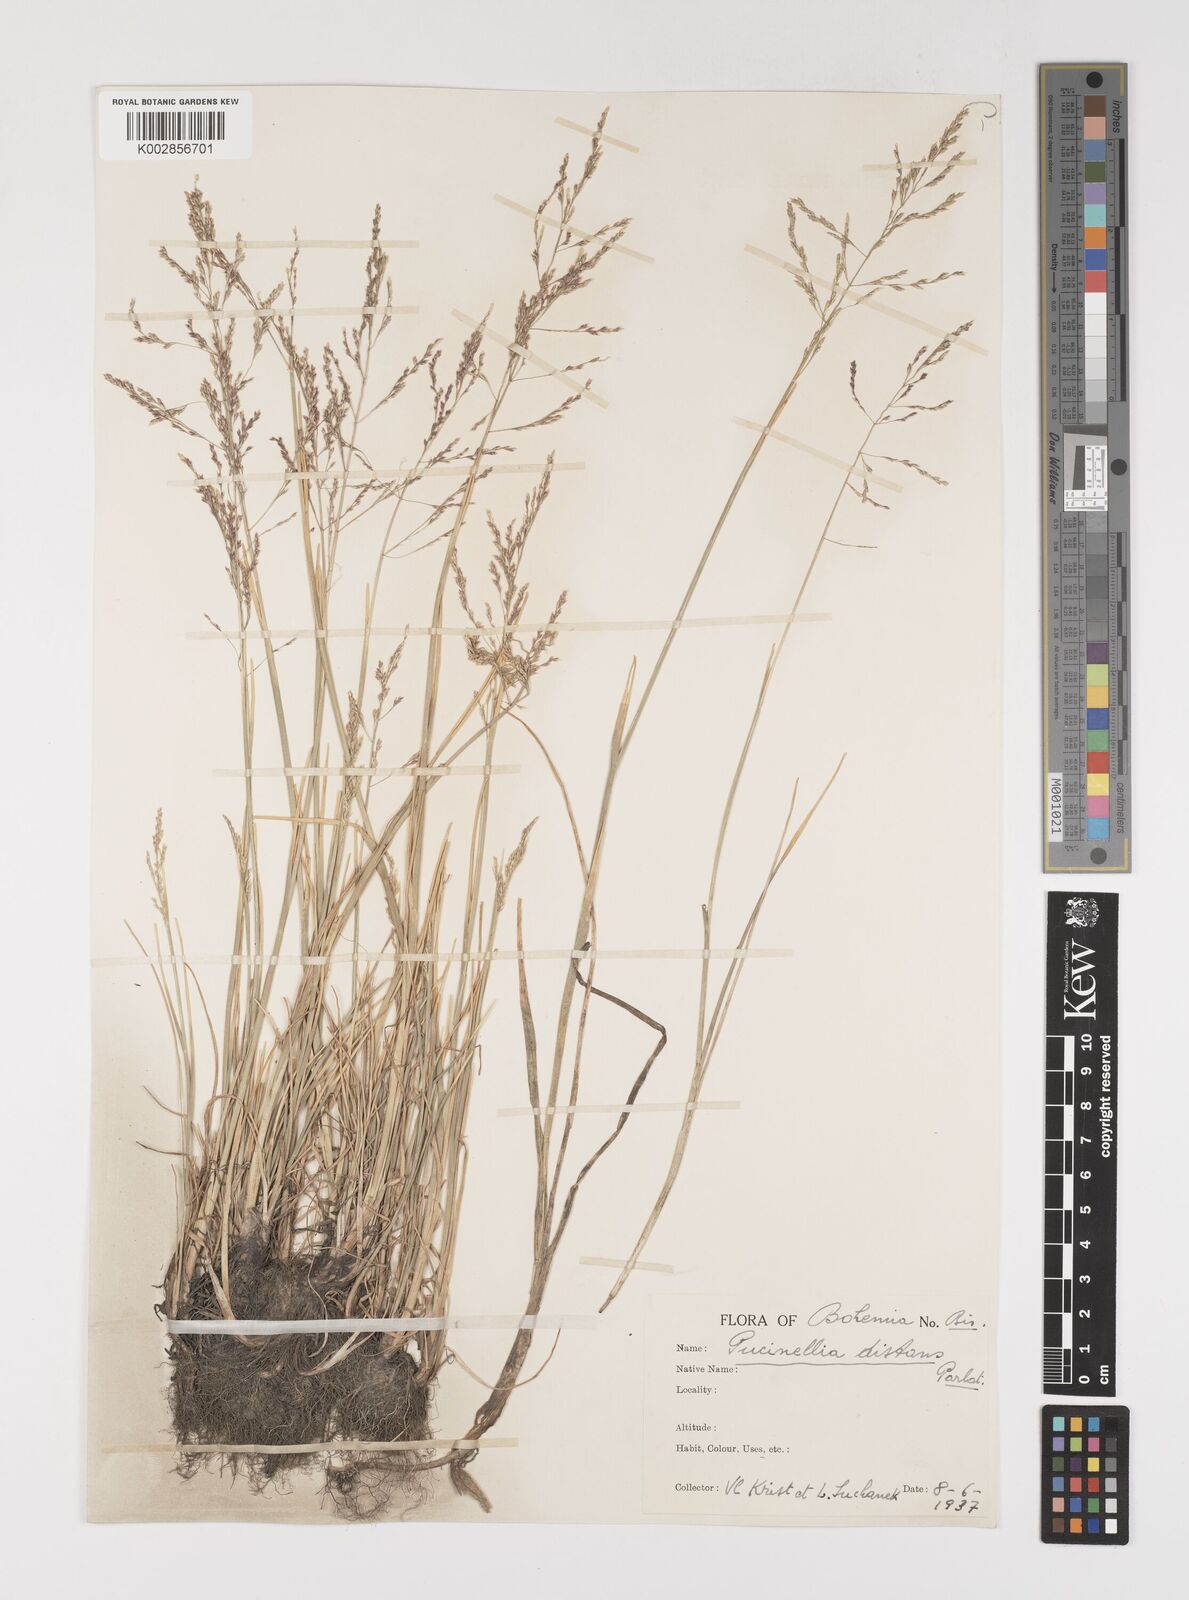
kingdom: Plantae
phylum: Tracheophyta
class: Liliopsida
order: Poales
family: Poaceae
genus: Puccinellia
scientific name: Puccinellia distans
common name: Weeping alkaligrass
